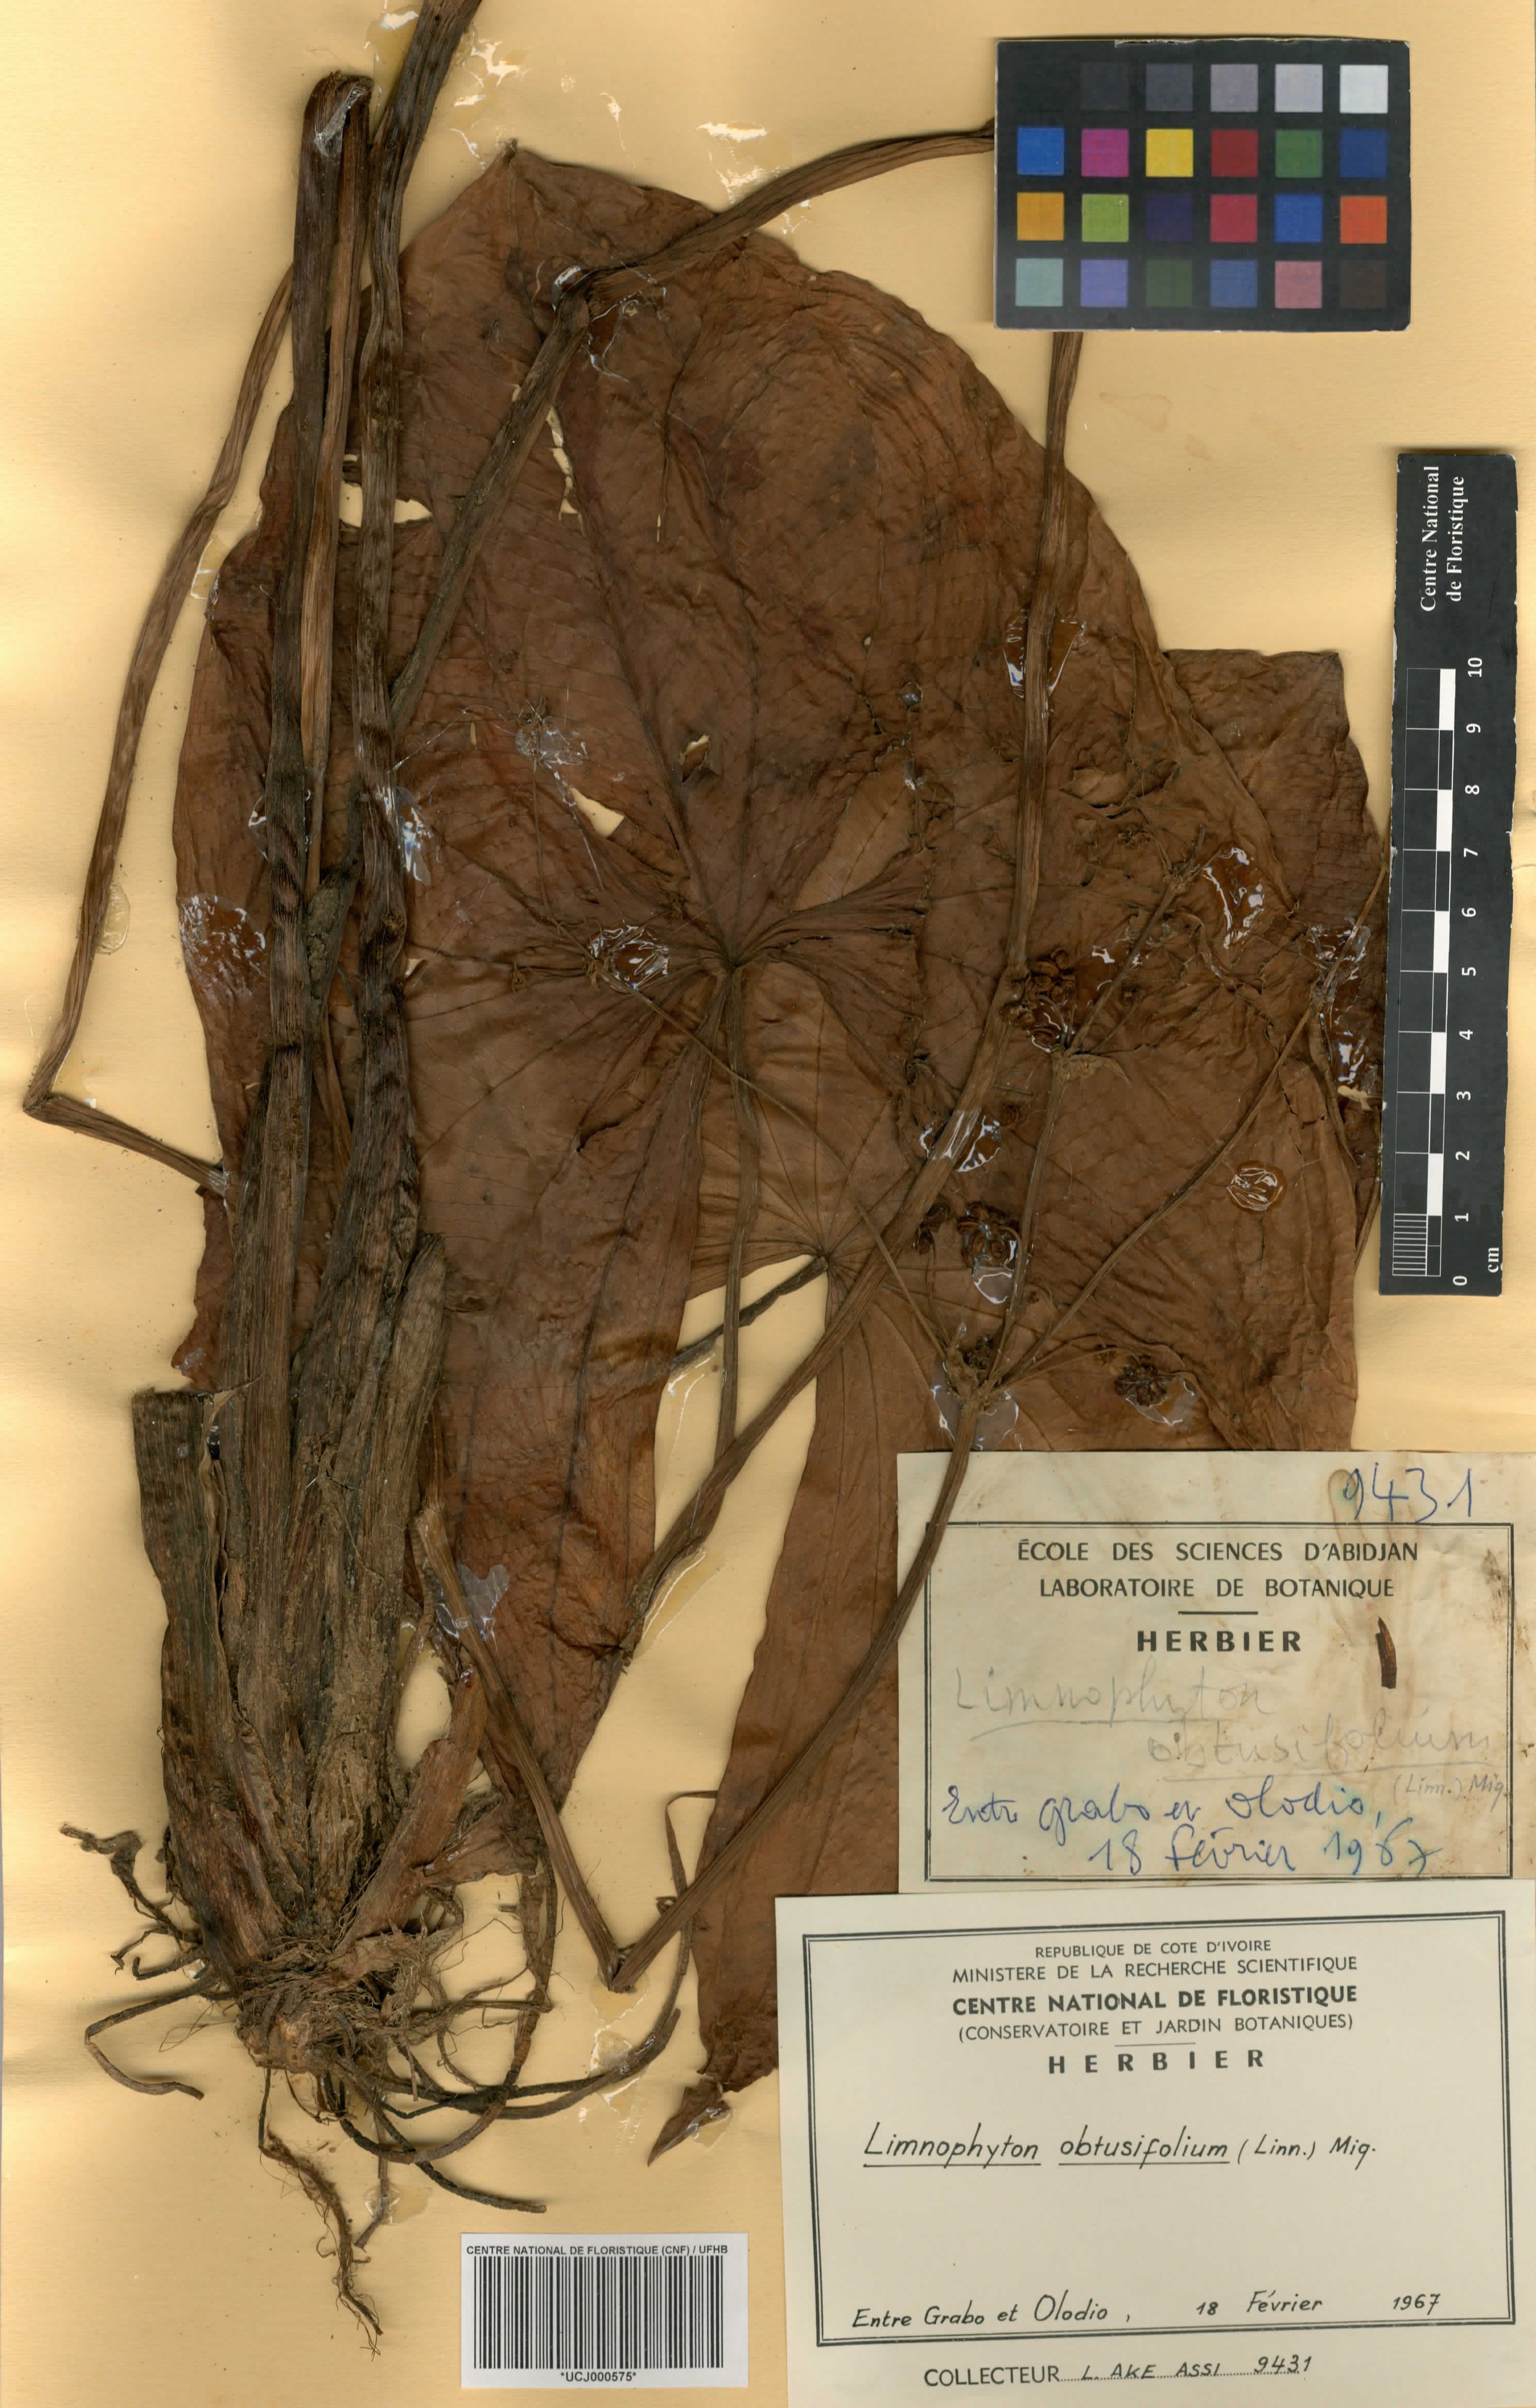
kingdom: Plantae
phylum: Tracheophyta
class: Liliopsida
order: Alismatales
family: Alismataceae
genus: Limnophyton
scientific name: Limnophyton obtusifolium
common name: Arrow head
